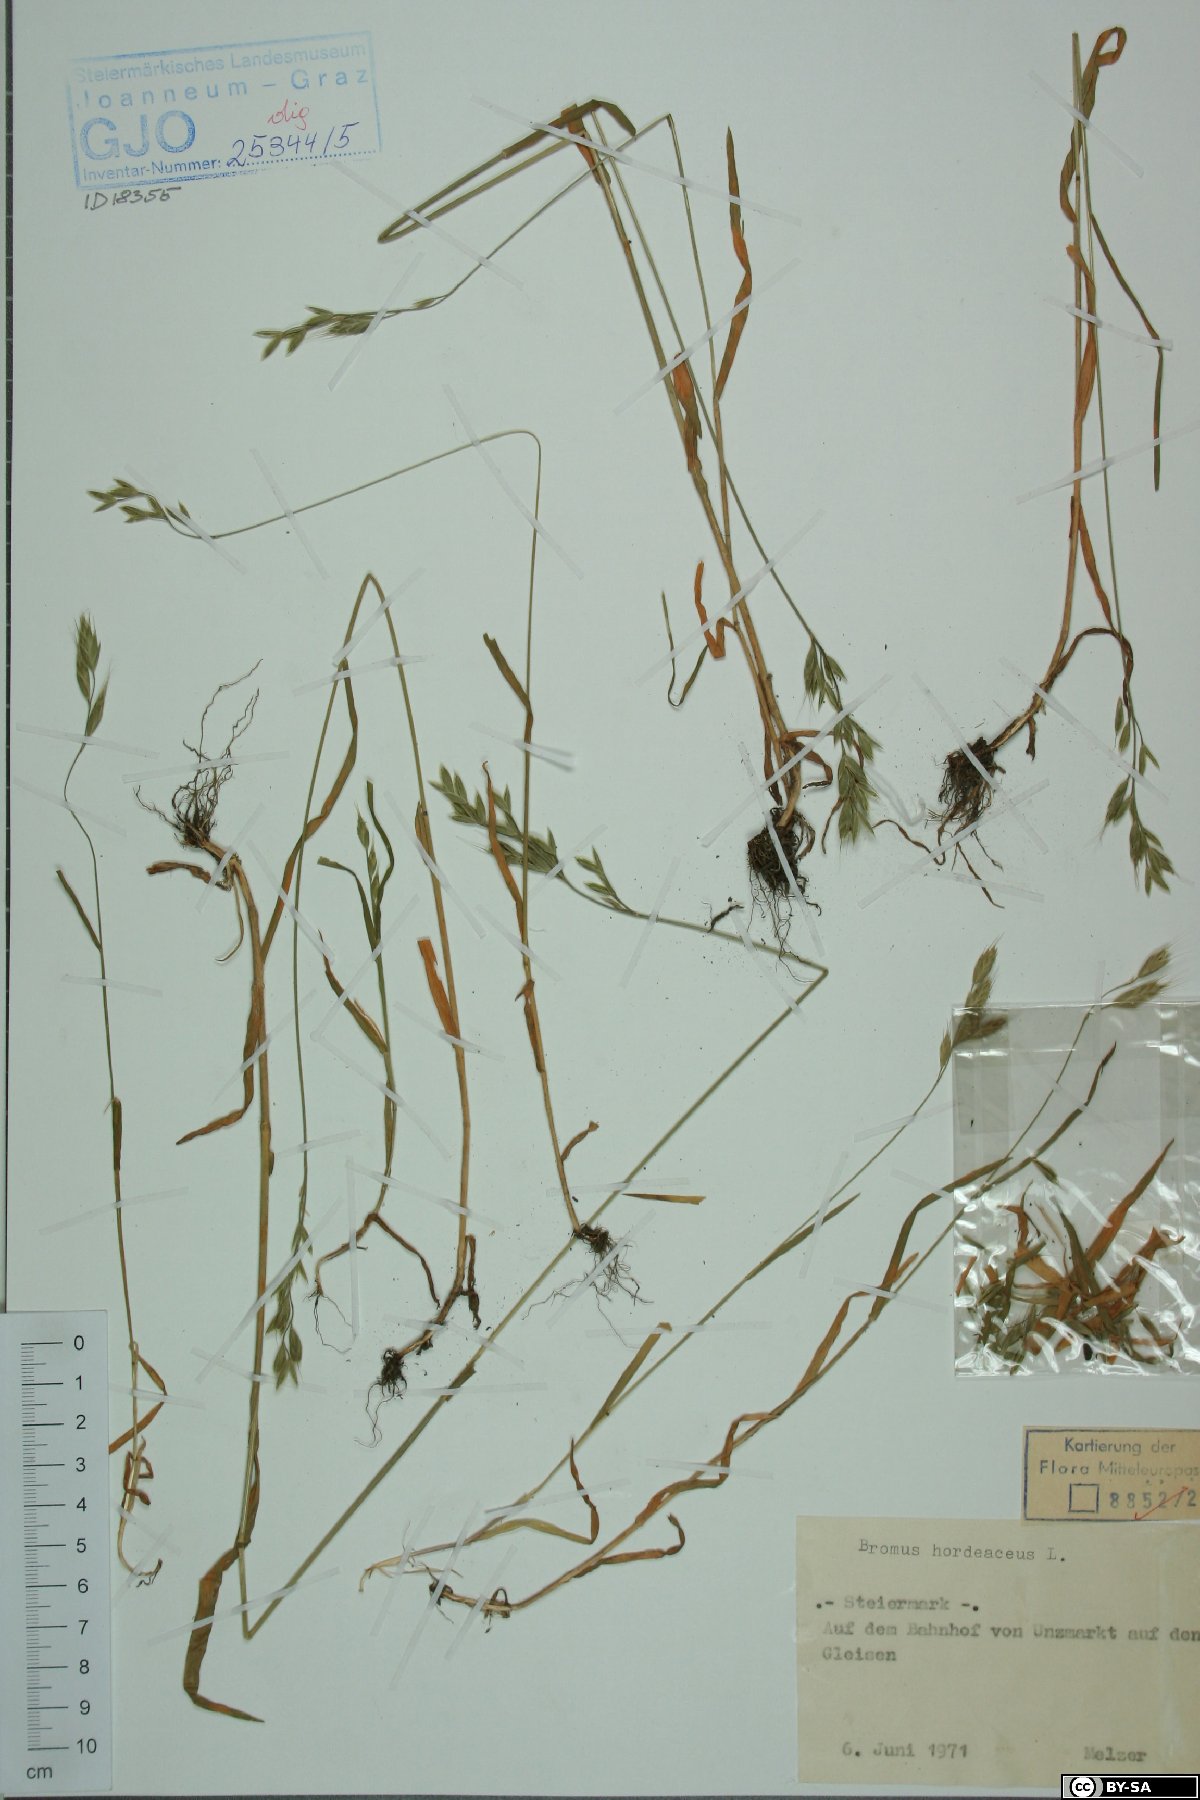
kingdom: Plantae
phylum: Tracheophyta
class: Liliopsida
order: Poales
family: Poaceae
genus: Bromus
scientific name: Bromus hordeaceus
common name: Soft brome
